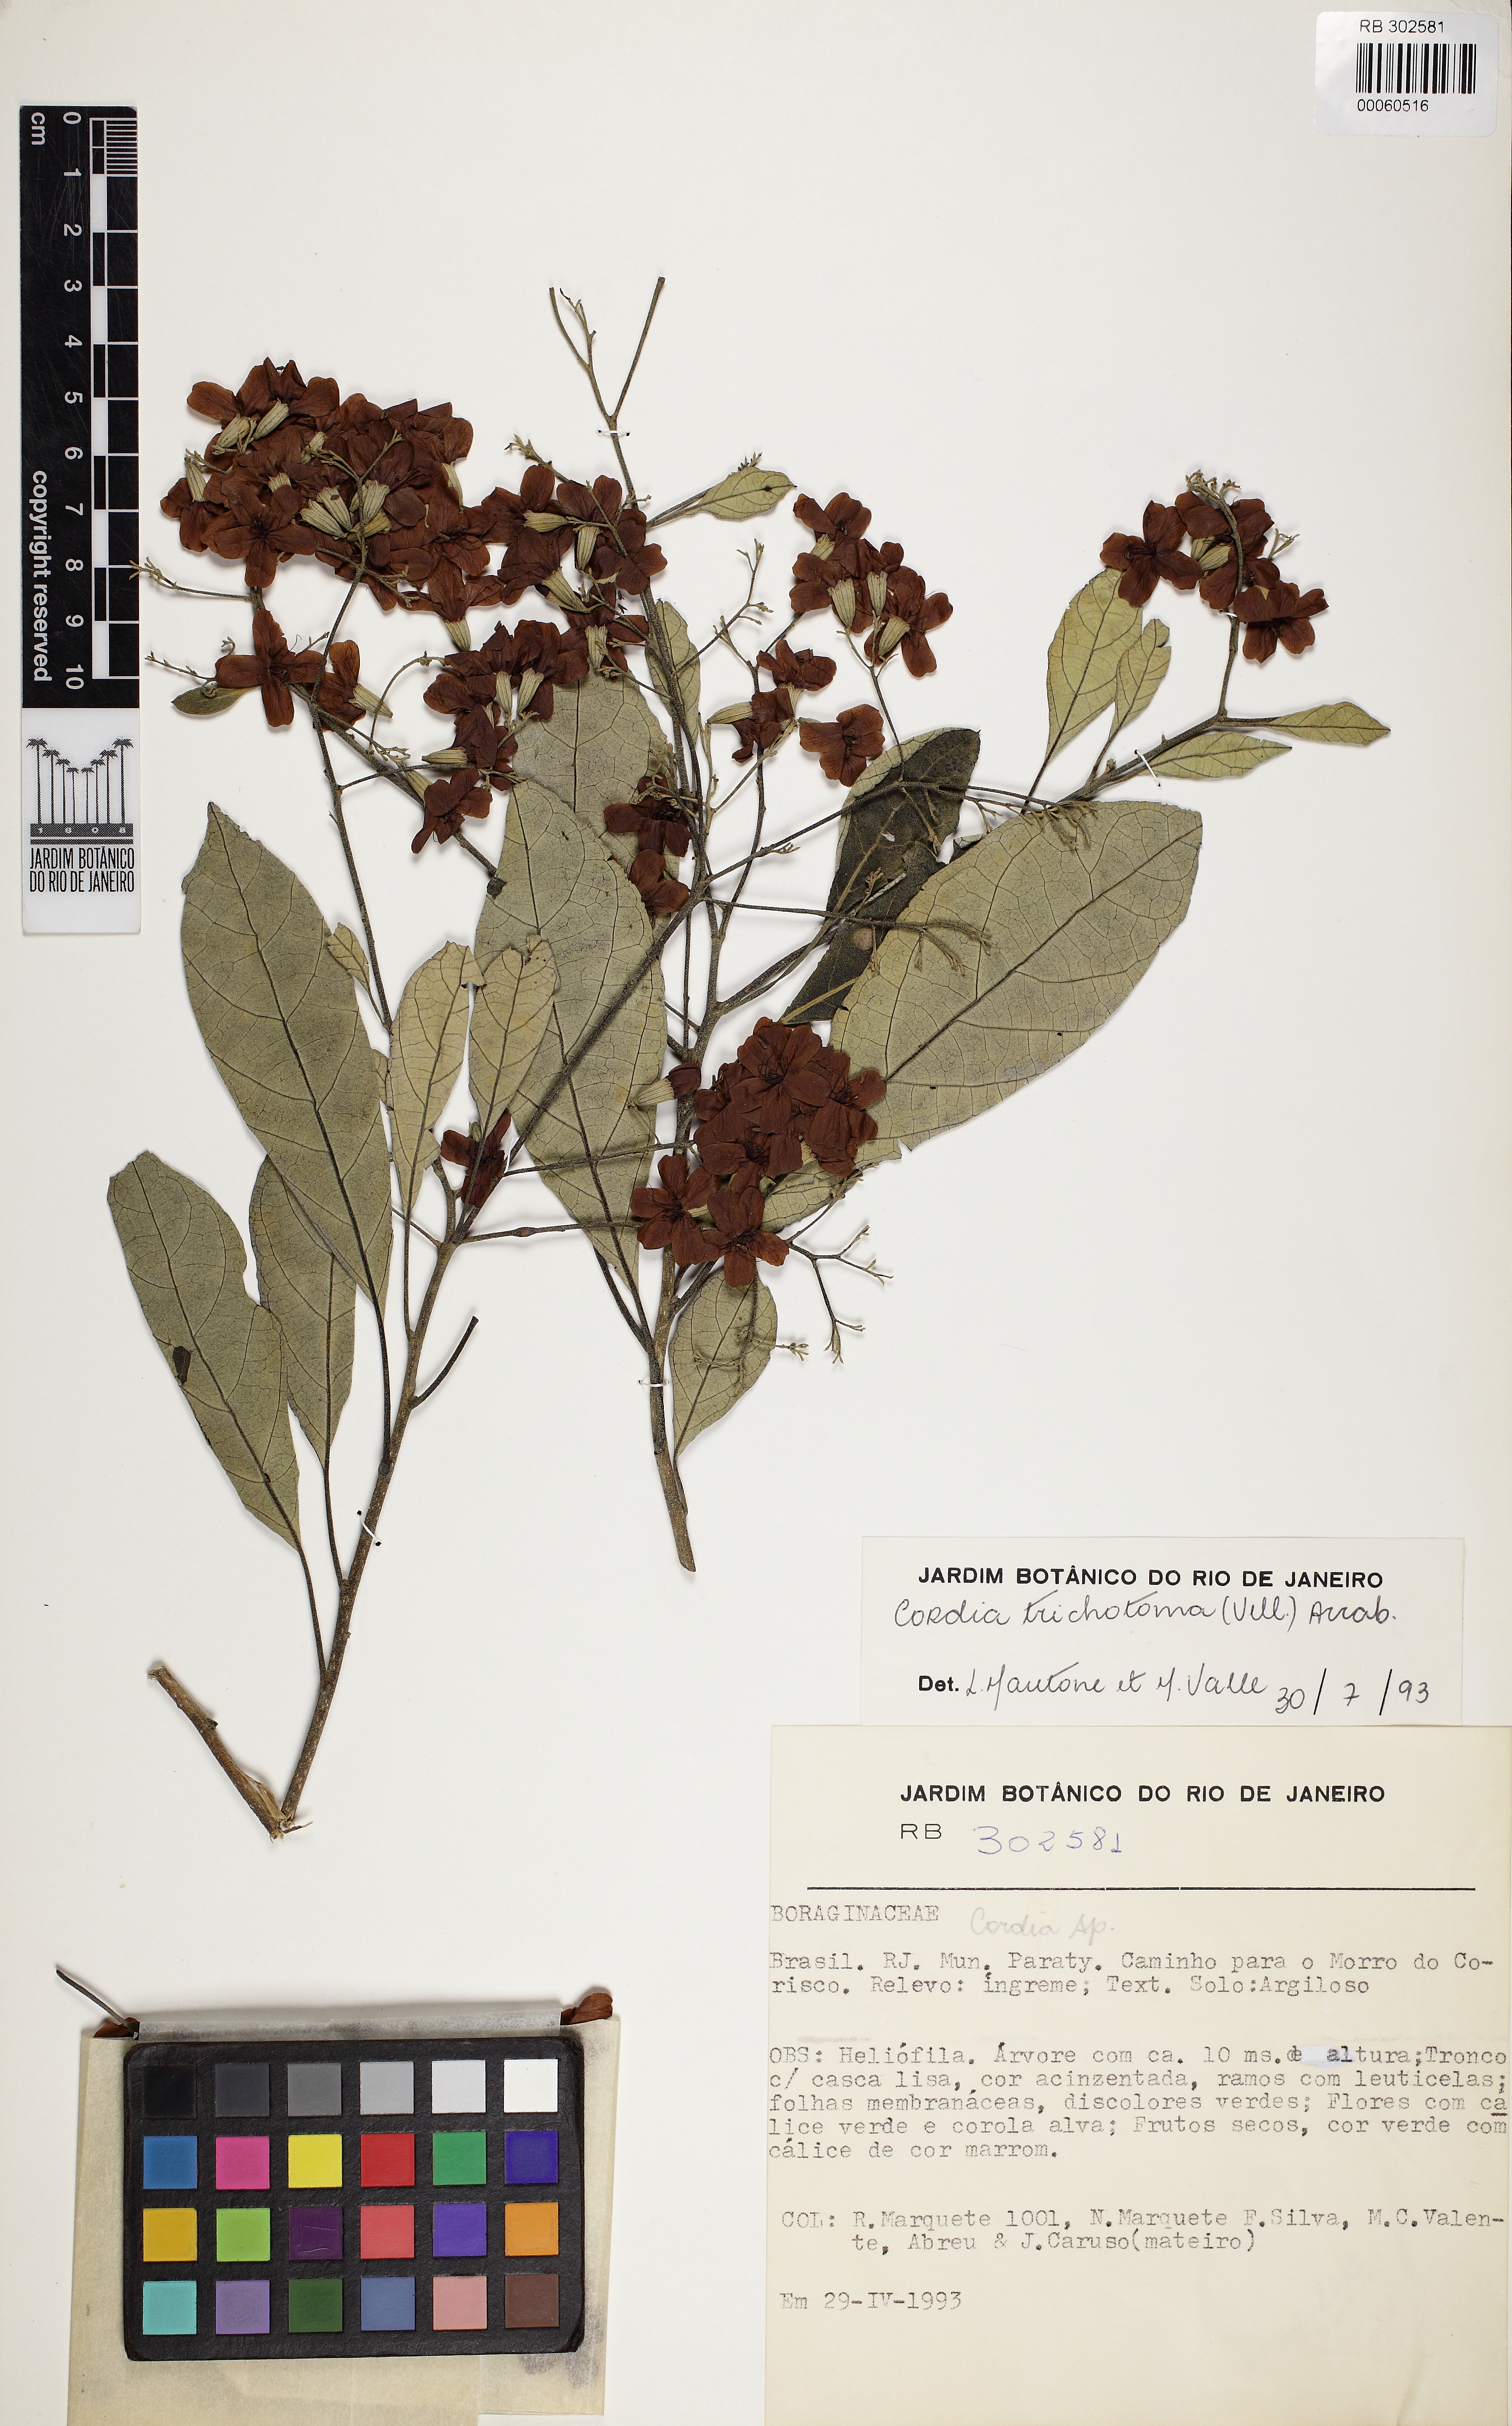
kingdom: Plantae
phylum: Tracheophyta
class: Magnoliopsida
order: Boraginales
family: Cordiaceae
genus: Cordia
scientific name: Cordia trichotoma
